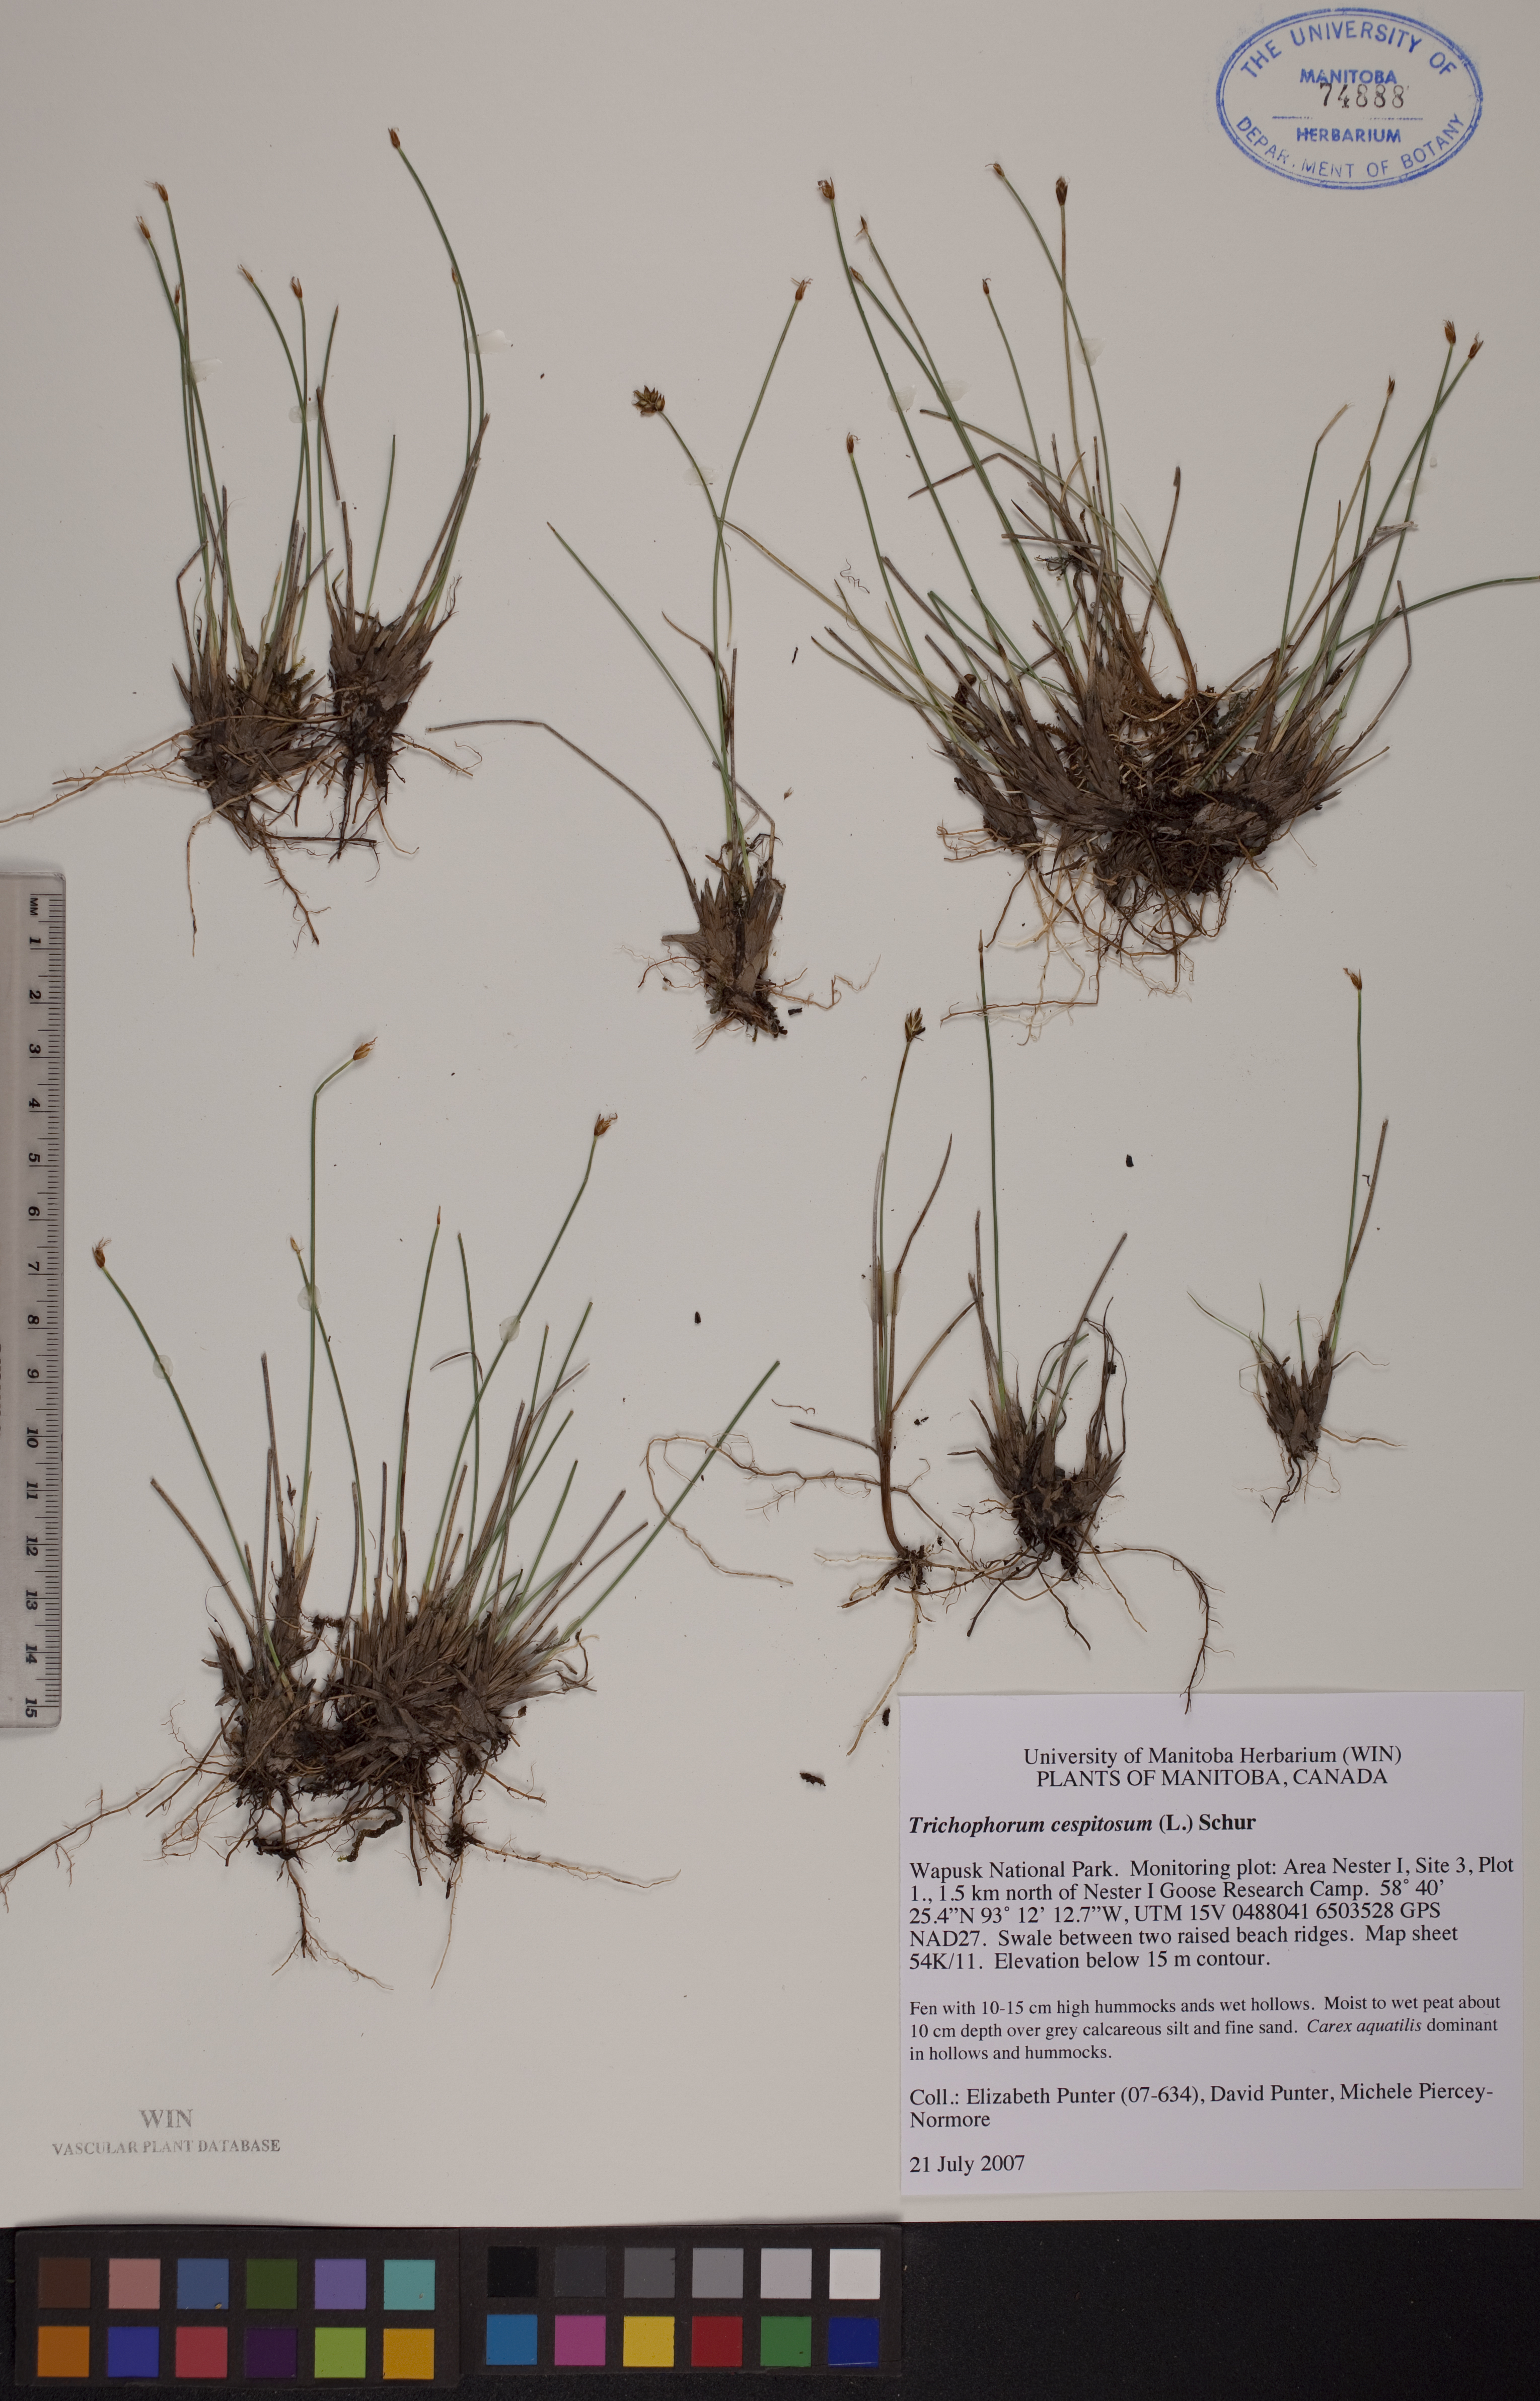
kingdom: Plantae
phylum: Tracheophyta
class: Liliopsida
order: Poales
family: Cyperaceae
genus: Trichophorum
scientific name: Trichophorum cespitosum
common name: Cespitose bulrush
